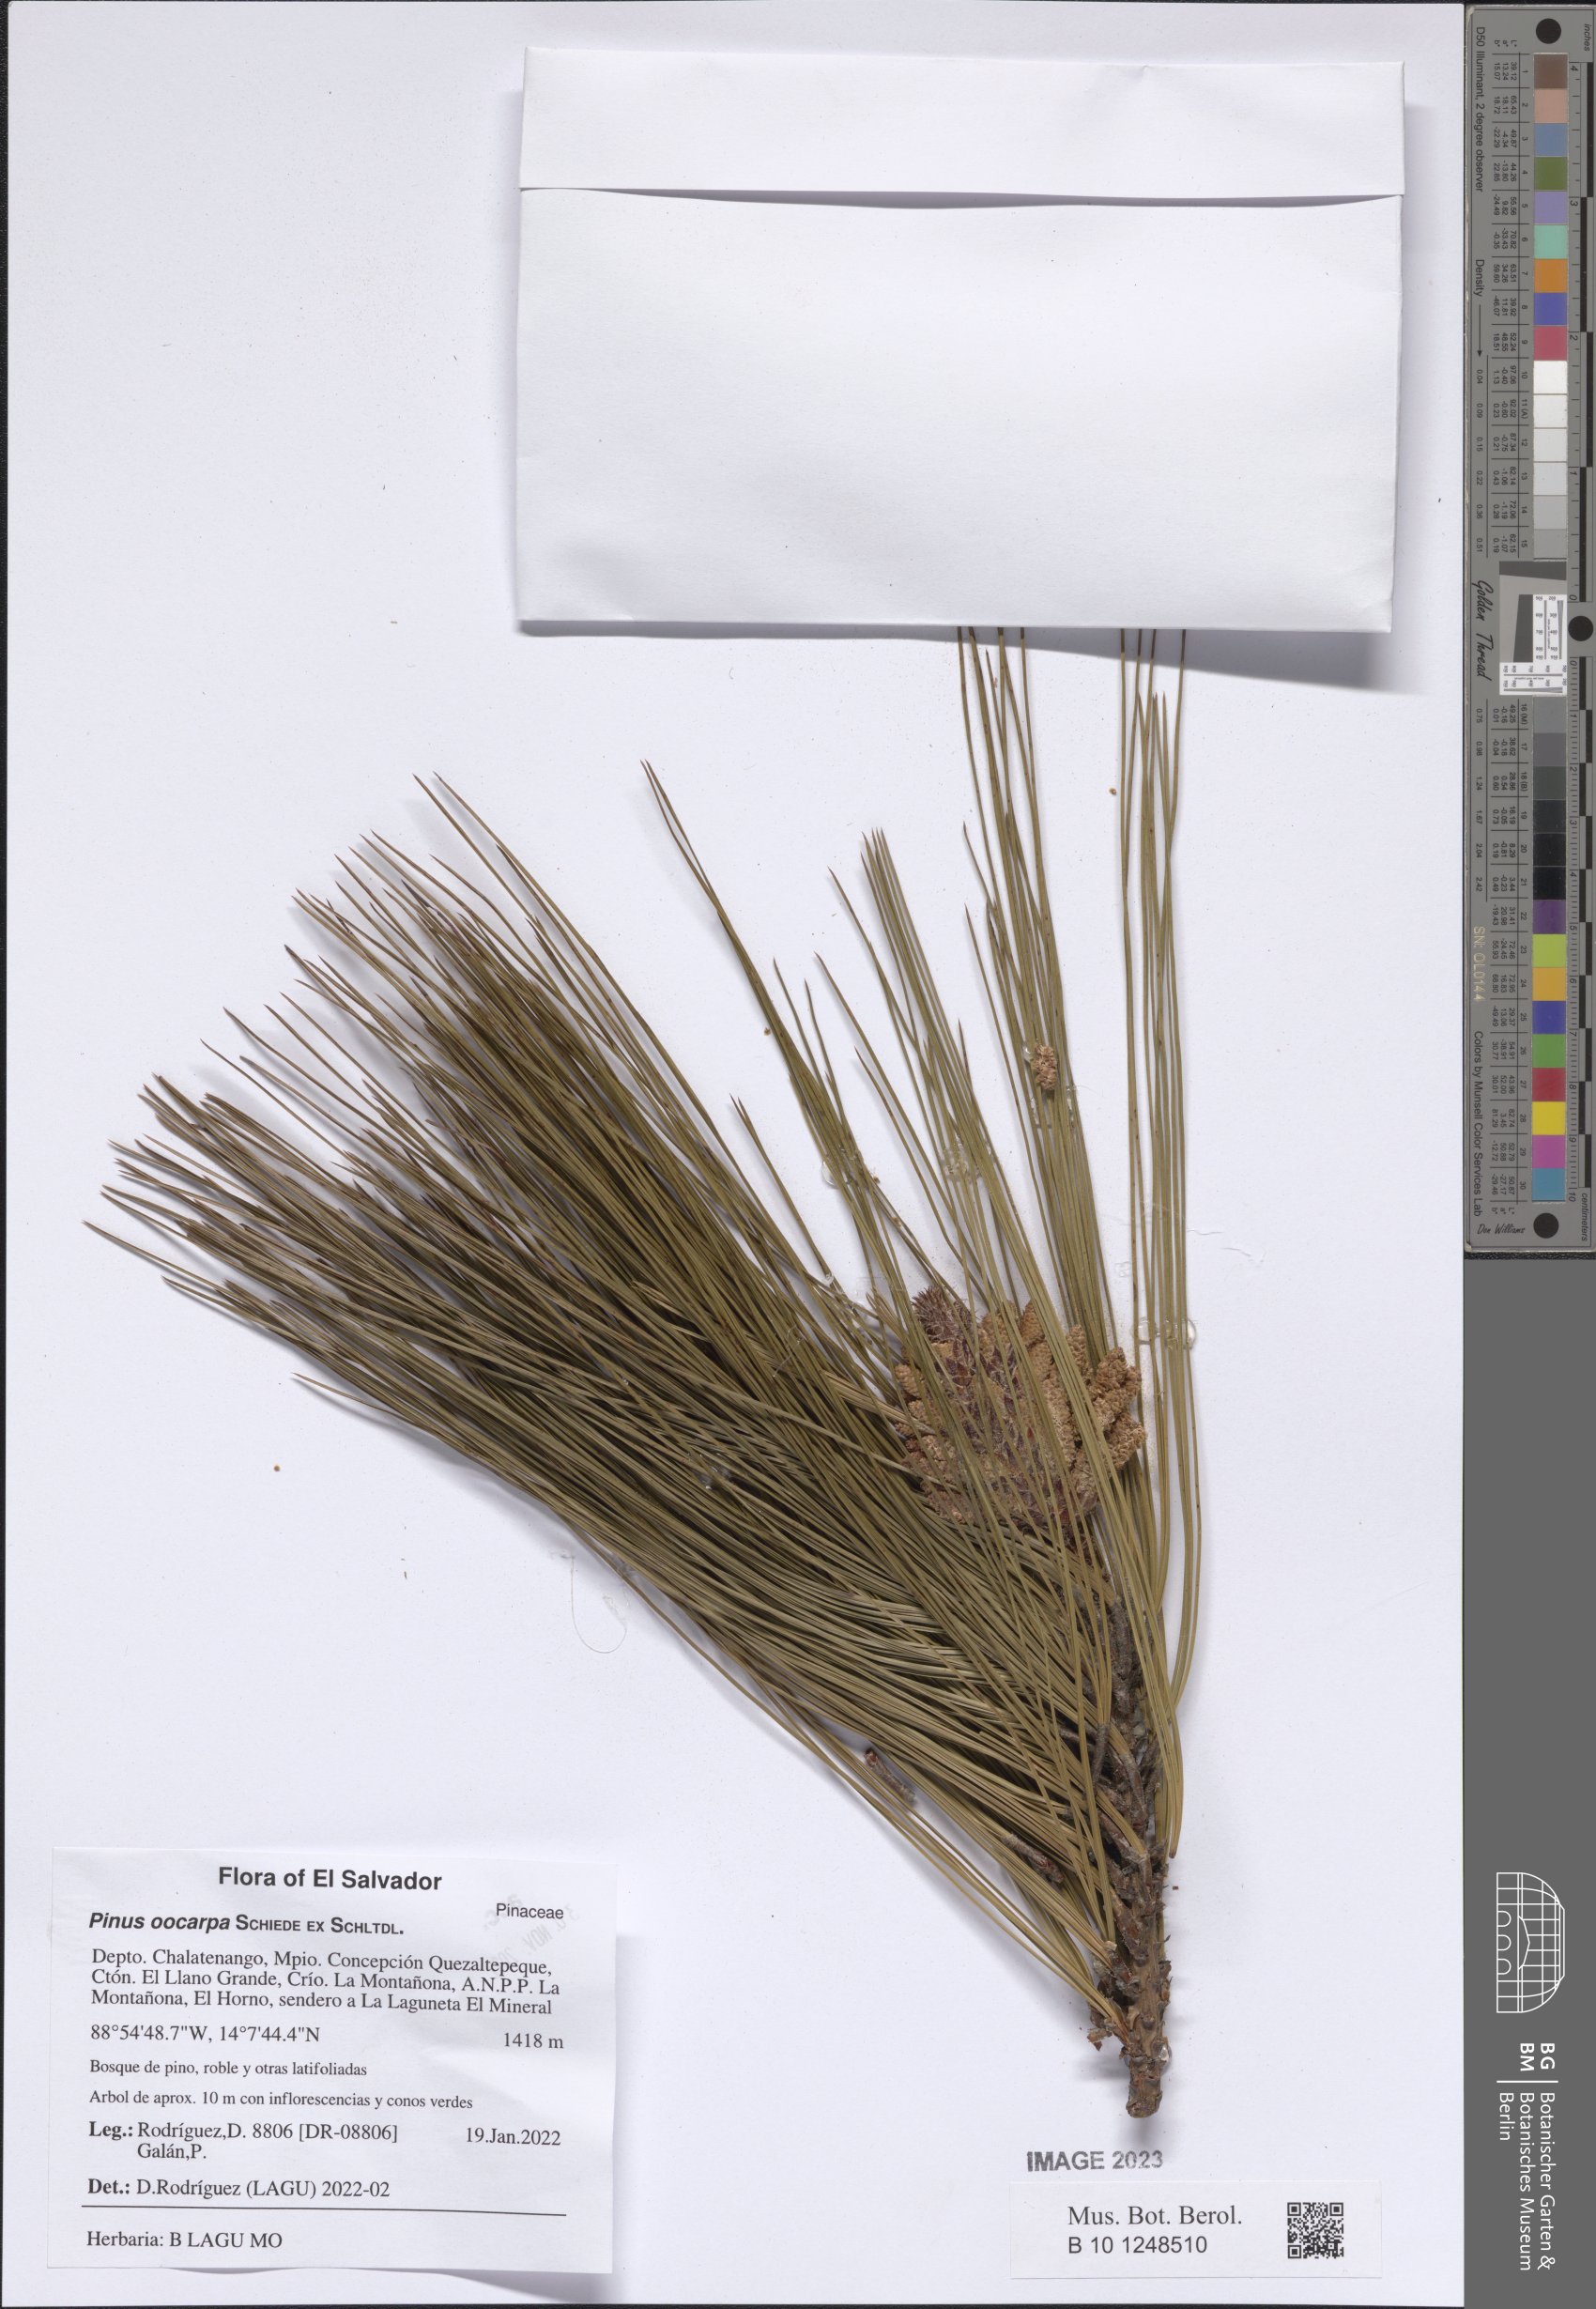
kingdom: Plantae
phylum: Tracheophyta
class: Pinopsida
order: Pinales
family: Pinaceae
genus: Pinus
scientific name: Pinus oocarpa
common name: Egg-cone pine
